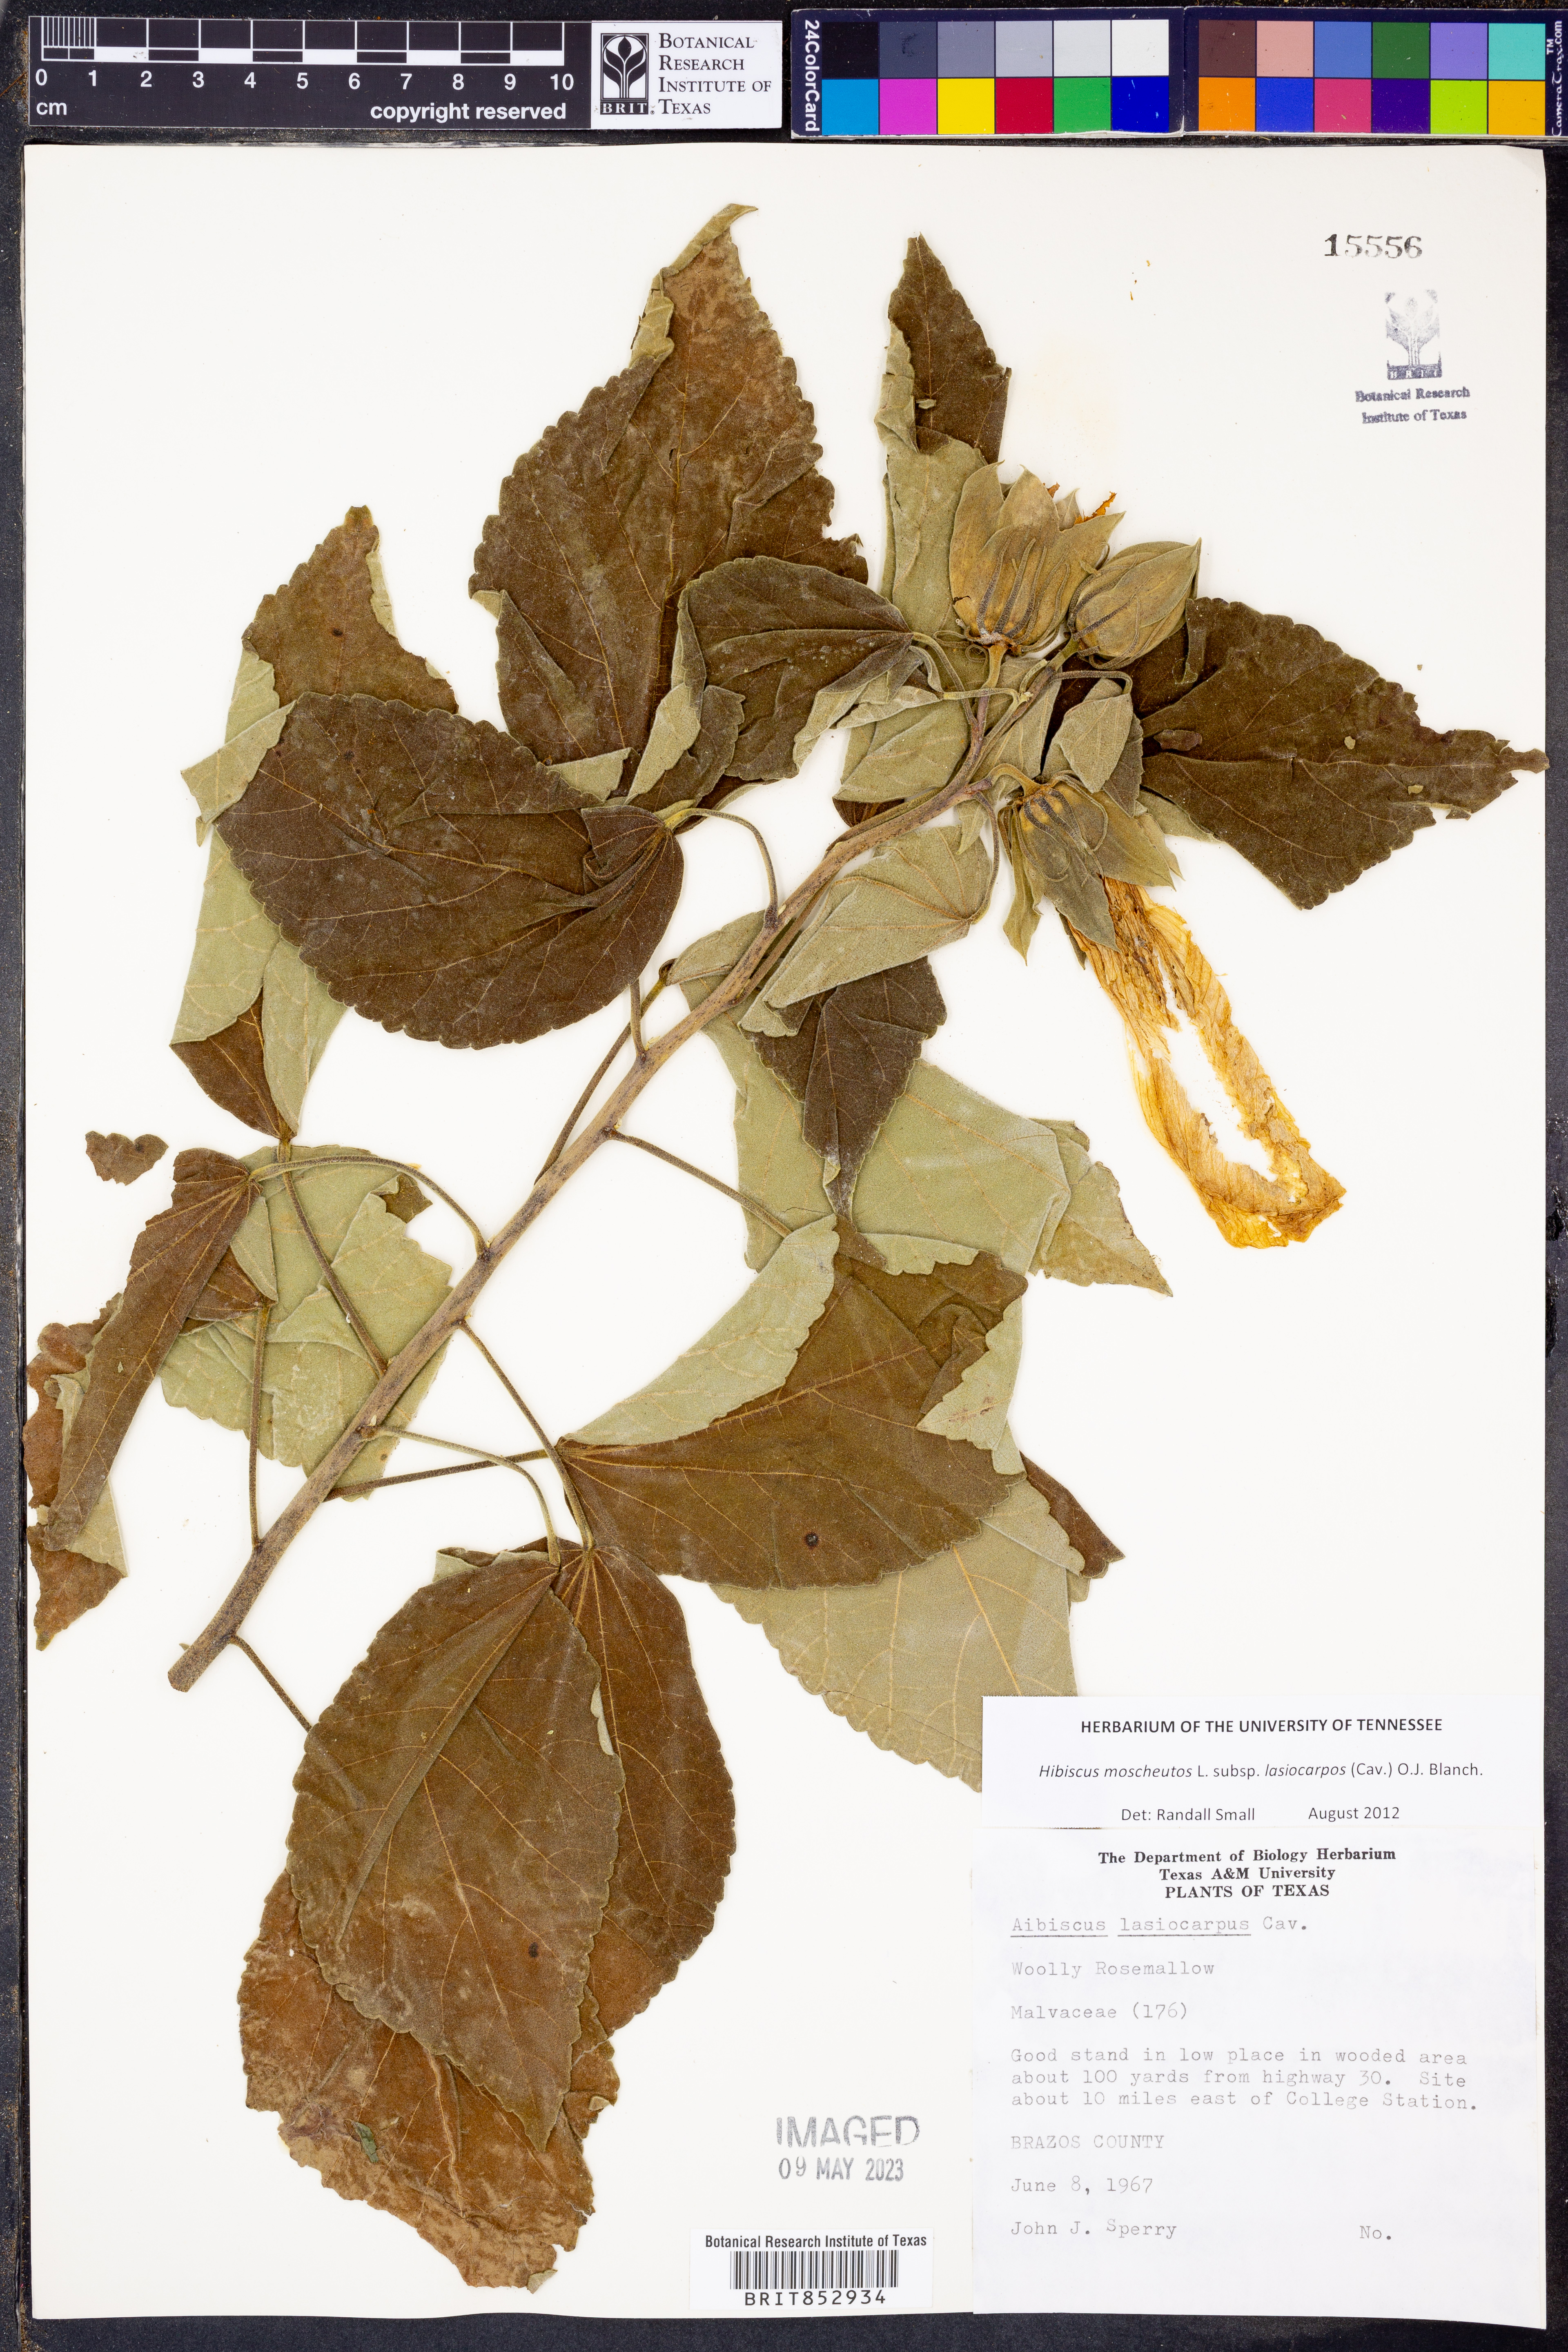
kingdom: Plantae
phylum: Tracheophyta
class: Magnoliopsida
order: Malvales
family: Malvaceae
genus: Hibiscus
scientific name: Hibiscus moscheutos
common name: Common rose-mallow
